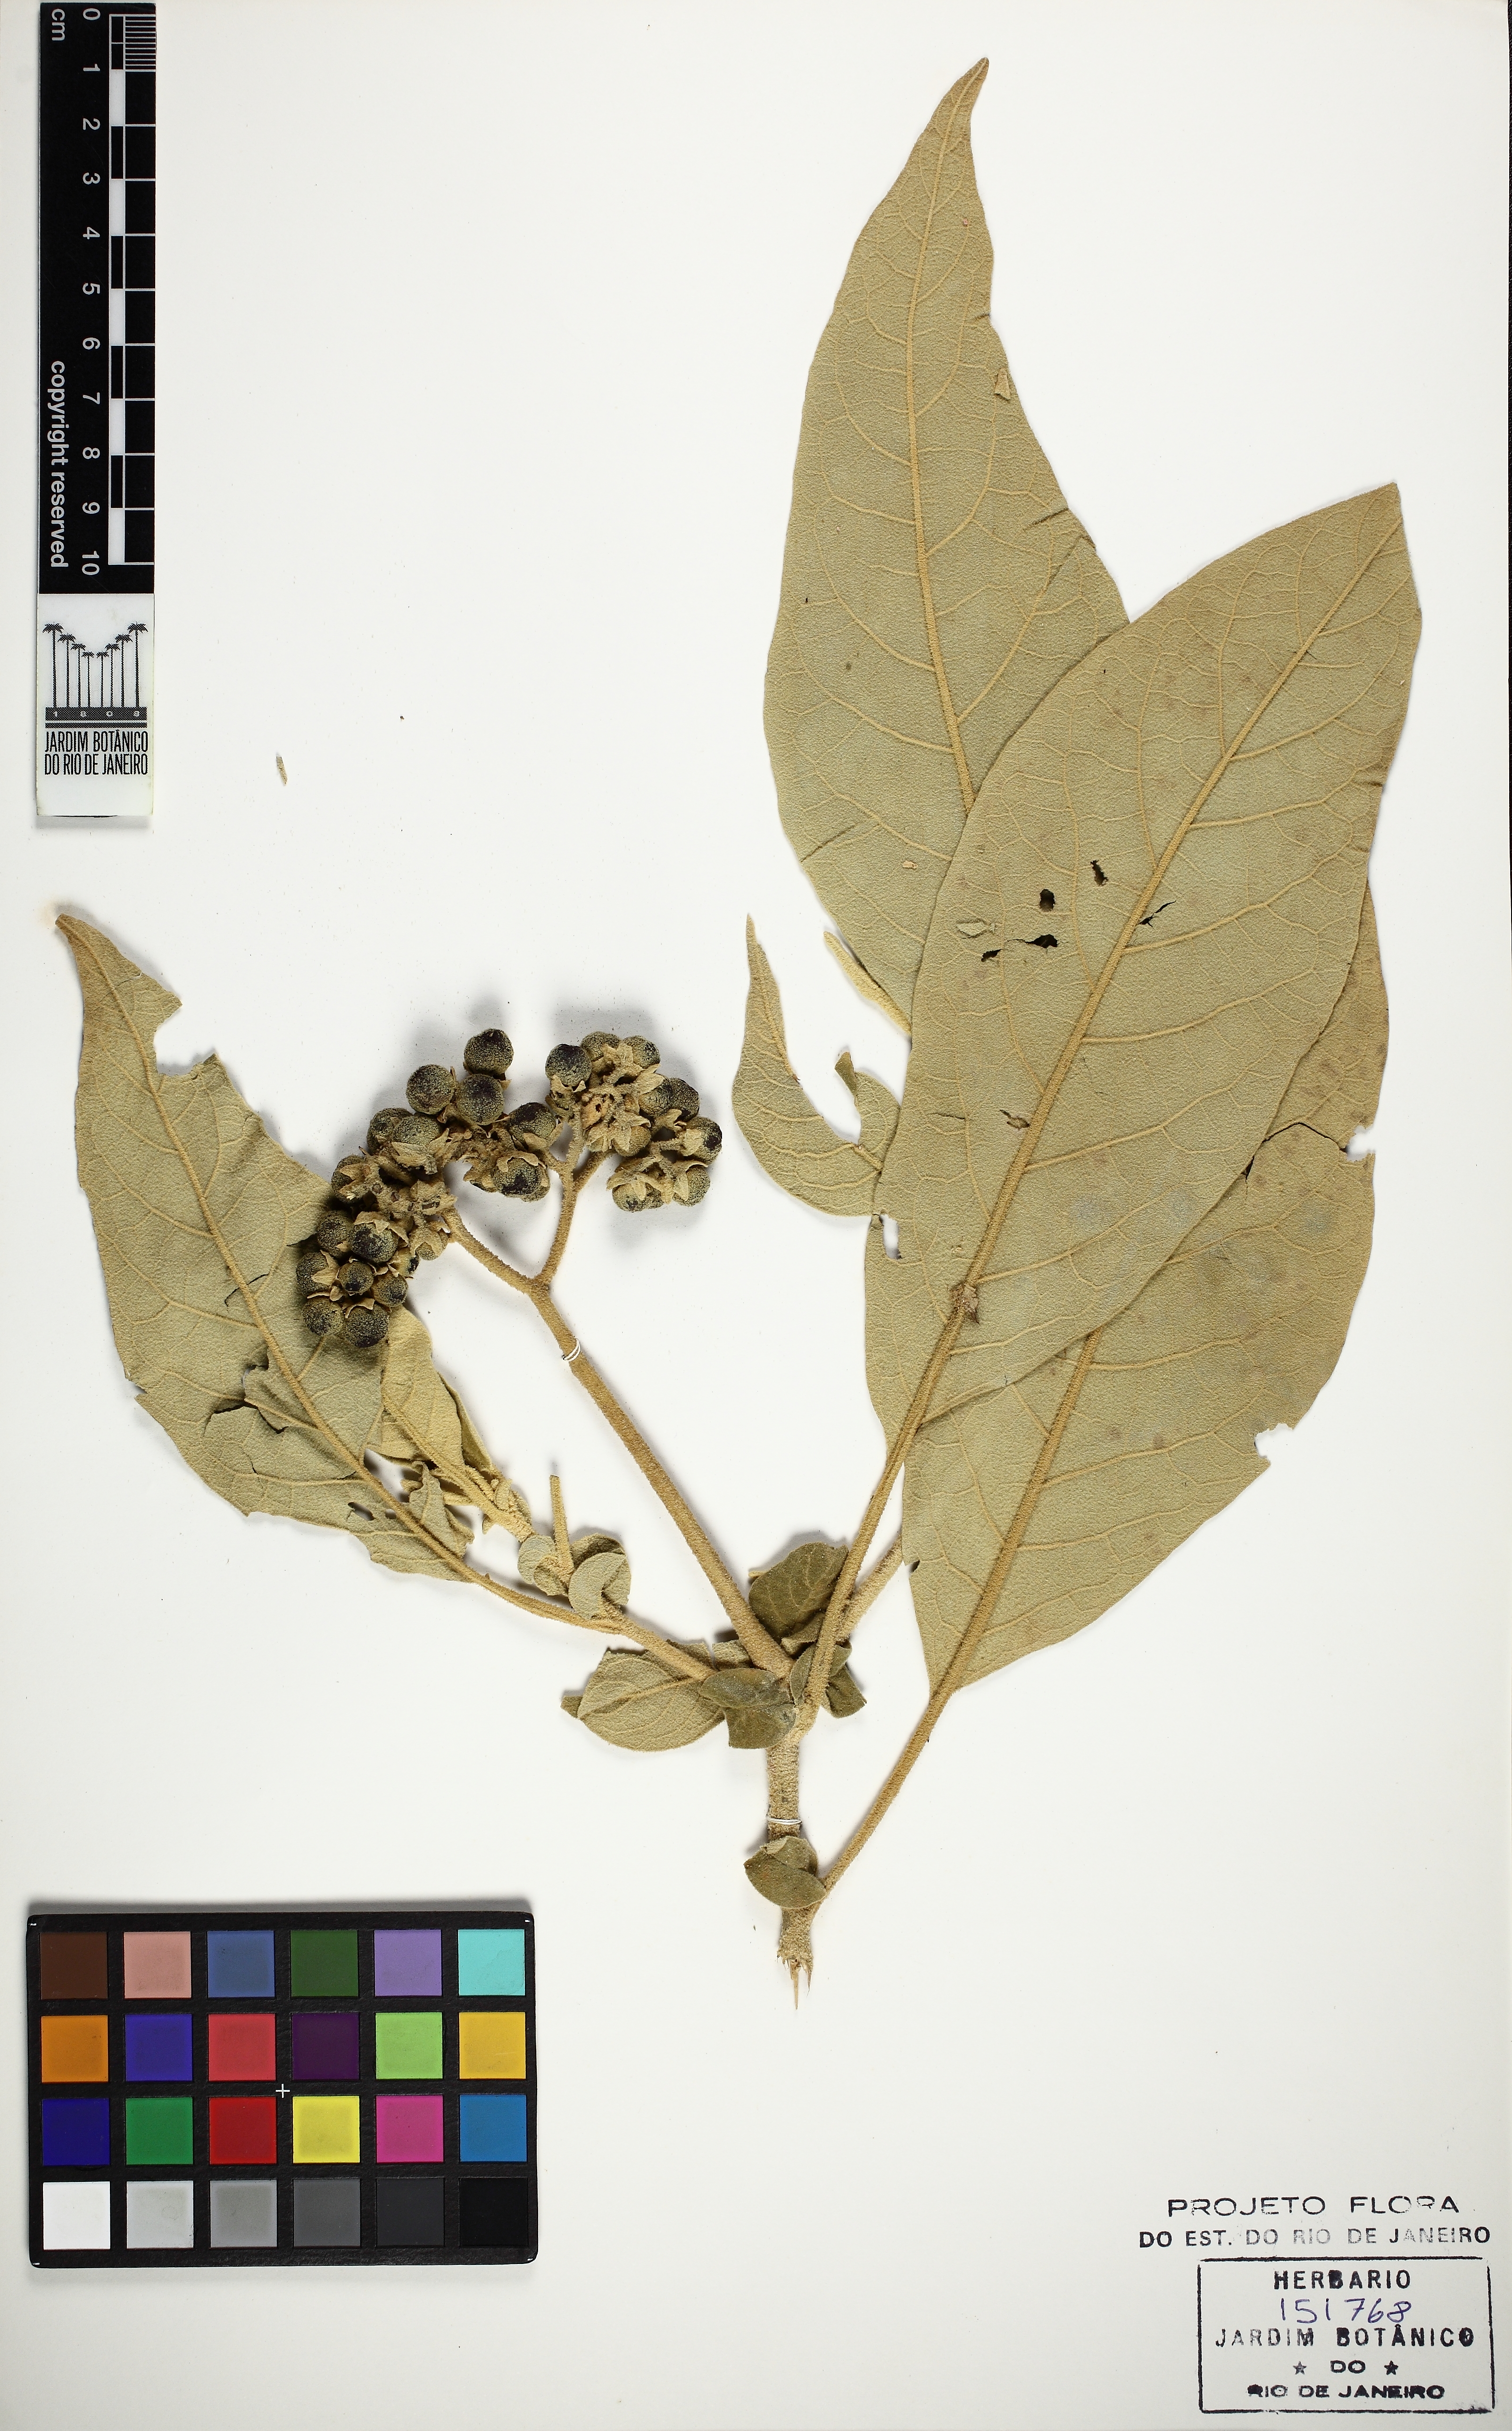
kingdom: Plantae
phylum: Tracheophyta
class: Magnoliopsida
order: Solanales
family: Solanaceae
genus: Solanum
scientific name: Solanum mauritianum
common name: Earleaf nightshade
